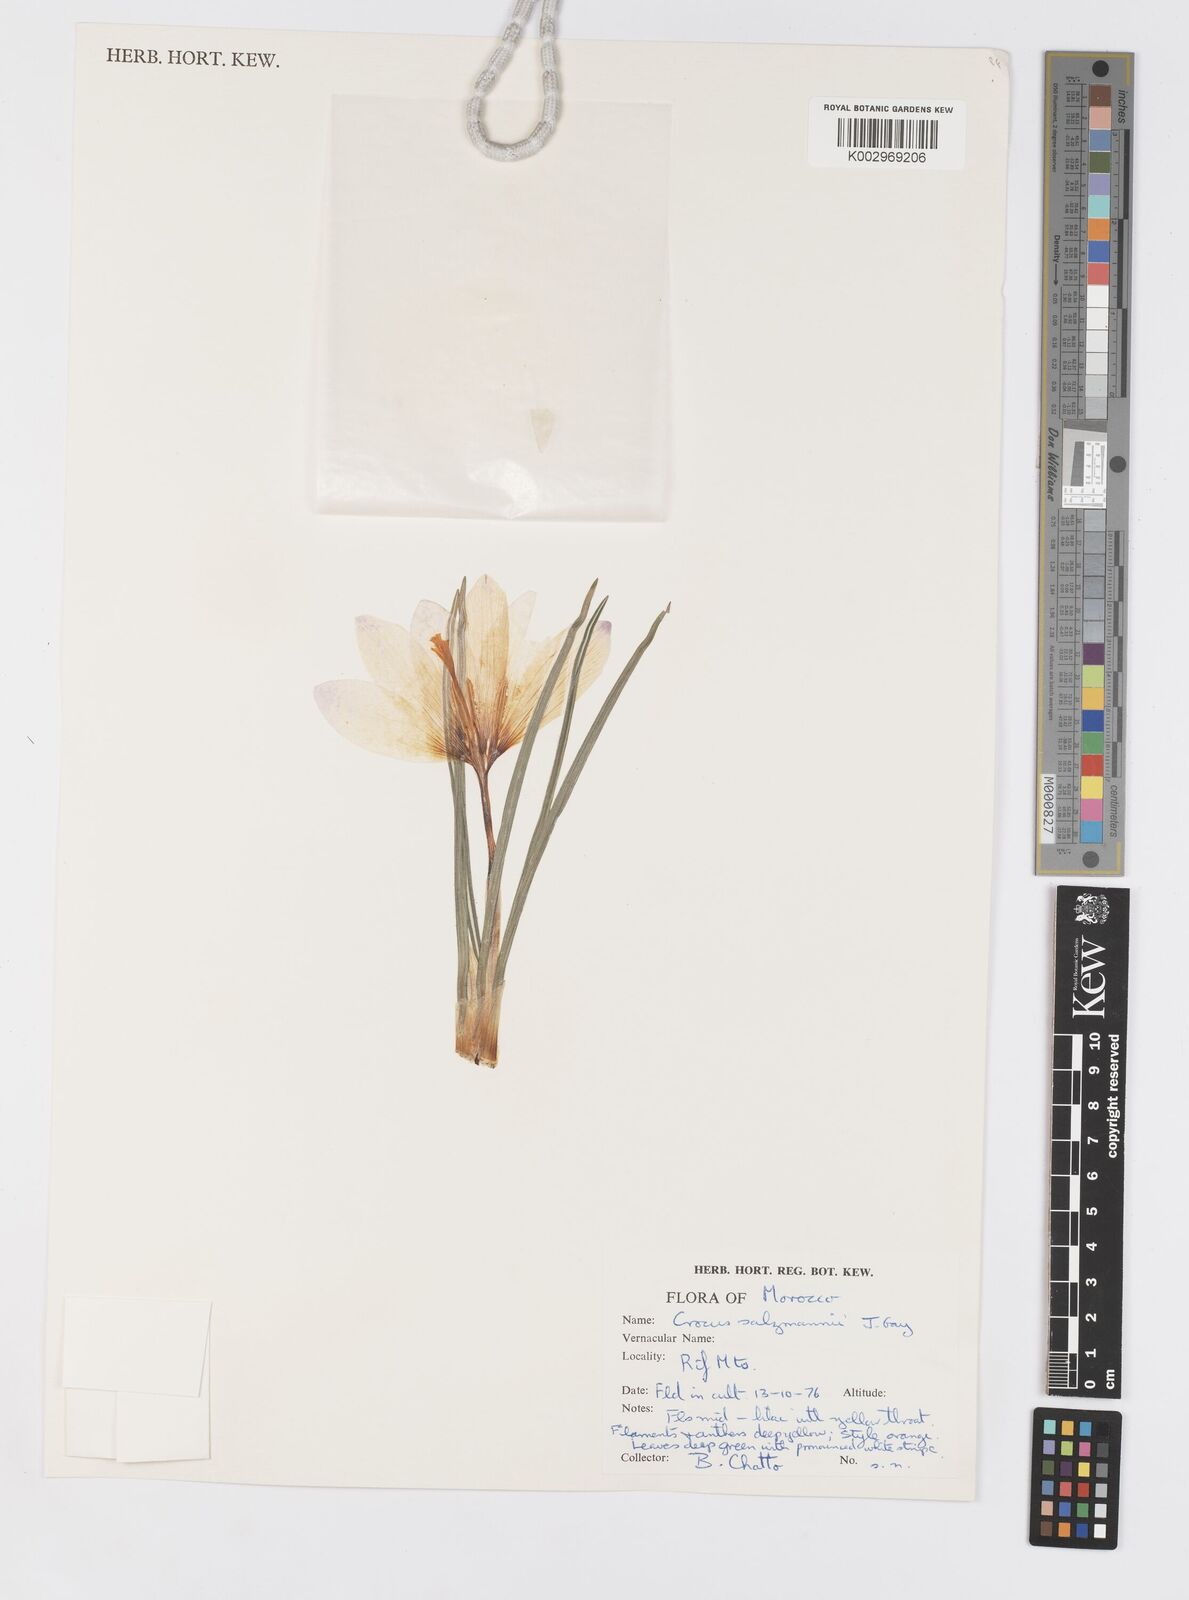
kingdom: Plantae
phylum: Tracheophyta
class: Liliopsida
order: Asparagales
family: Iridaceae
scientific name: Iridaceae
